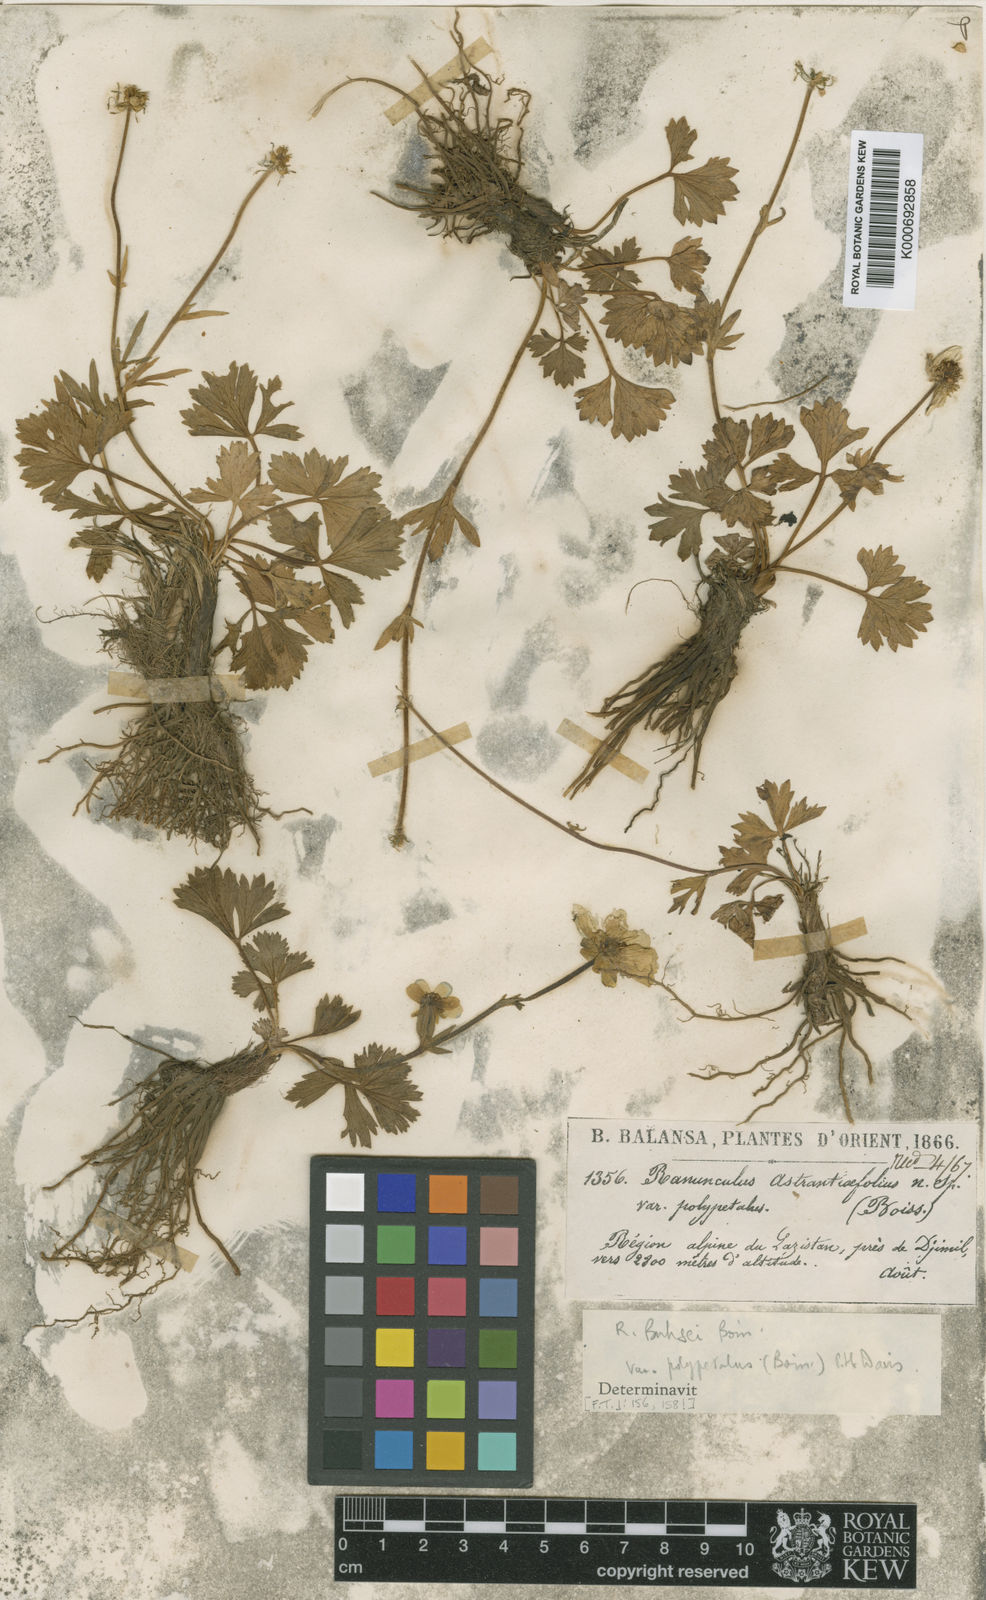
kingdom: Plantae
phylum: Tracheophyta
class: Magnoliopsida
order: Ranunculales
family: Ranunculaceae
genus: Ranunculus
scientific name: Ranunculus buhsei
